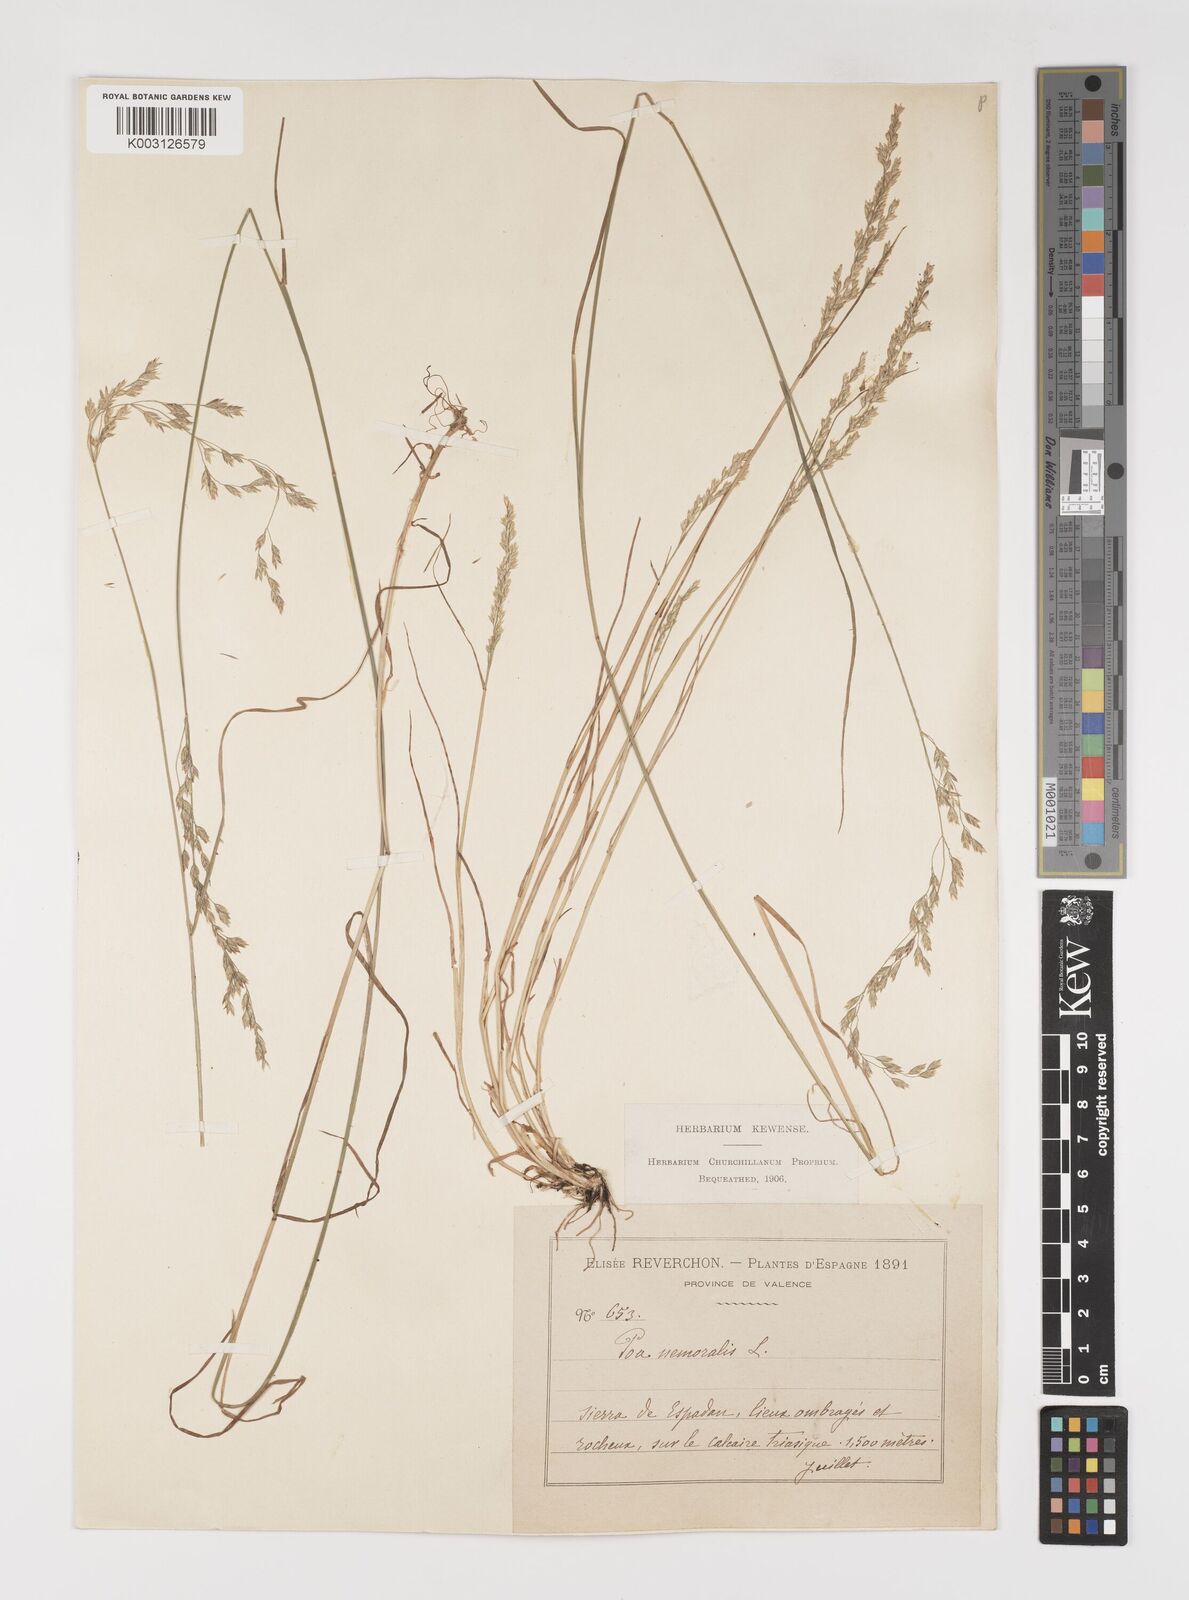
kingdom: Plantae
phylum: Tracheophyta
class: Liliopsida
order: Poales
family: Poaceae
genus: Poa
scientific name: Poa nemoralis
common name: Wood bluegrass
